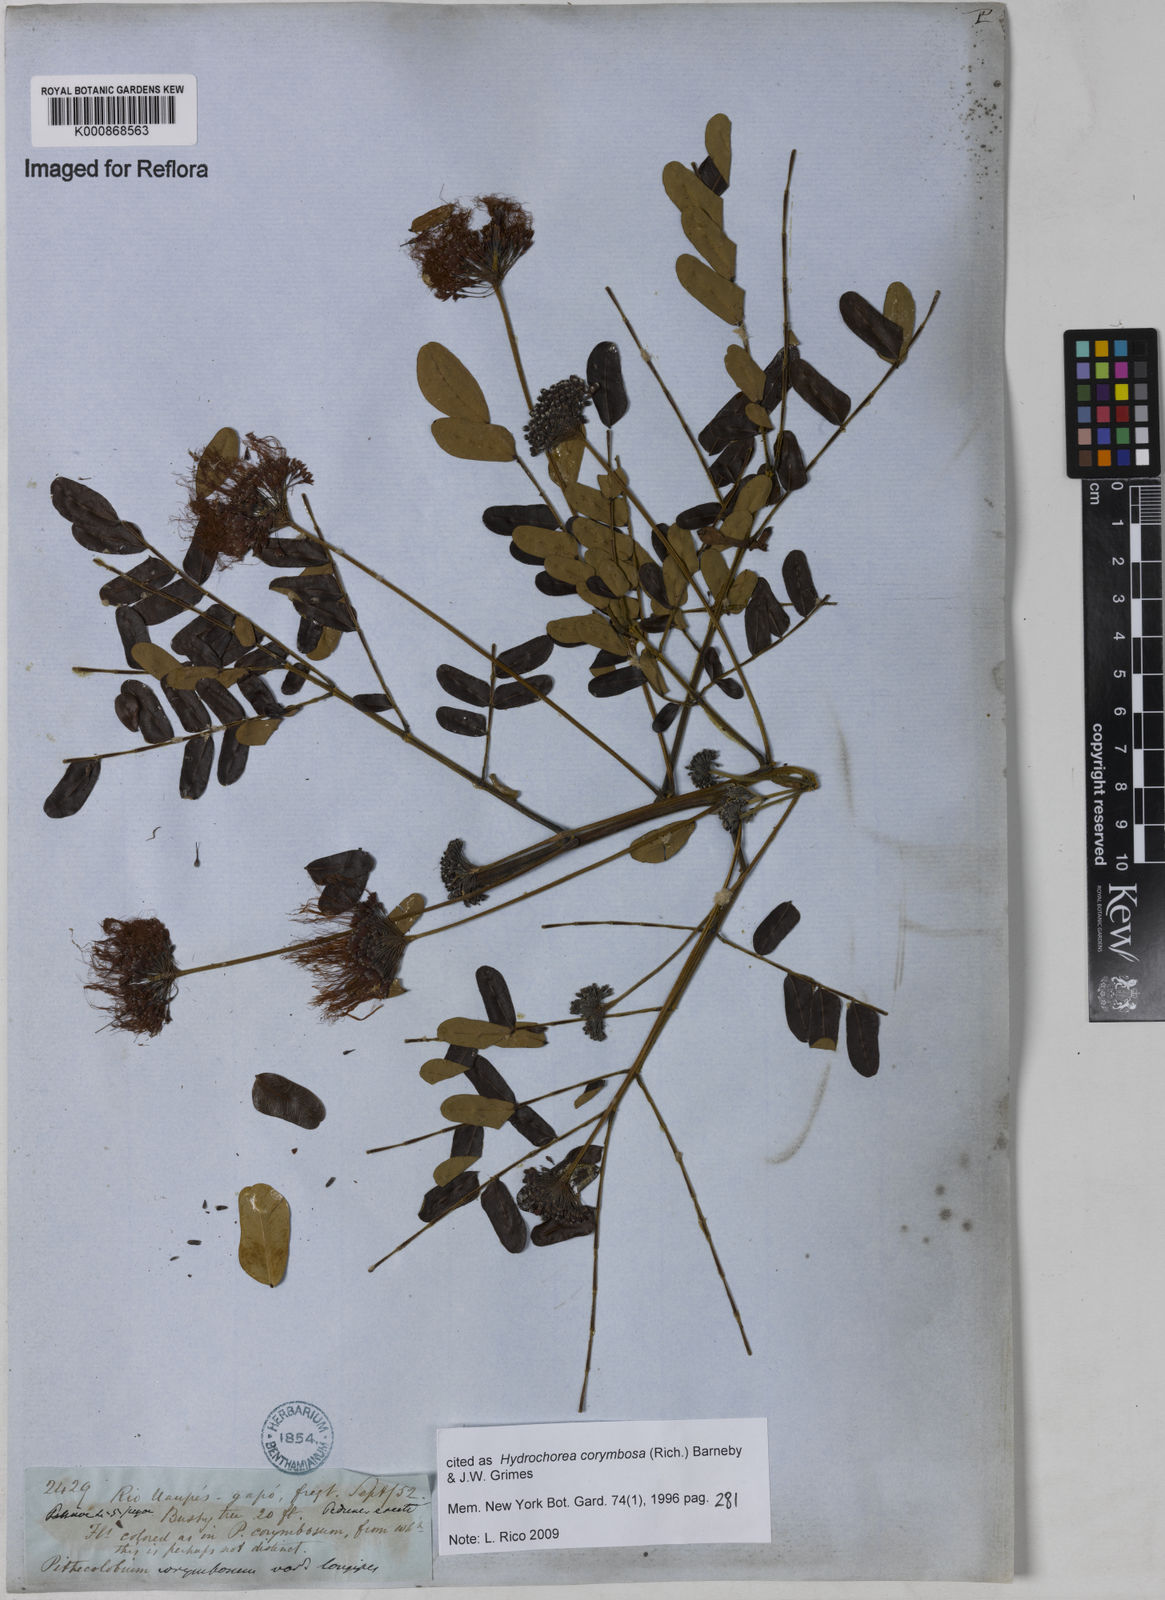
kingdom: Plantae
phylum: Tracheophyta
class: Magnoliopsida
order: Fabales
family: Fabaceae
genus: Hydrochorea
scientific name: Hydrochorea corymbosa
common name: Swamp manariballi
